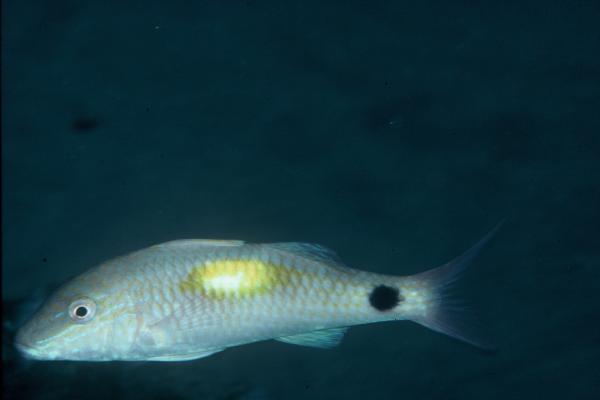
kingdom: Animalia
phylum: Chordata
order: Perciformes
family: Mullidae
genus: Parupeneus
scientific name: Parupeneus indicus
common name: Indian goatfish
